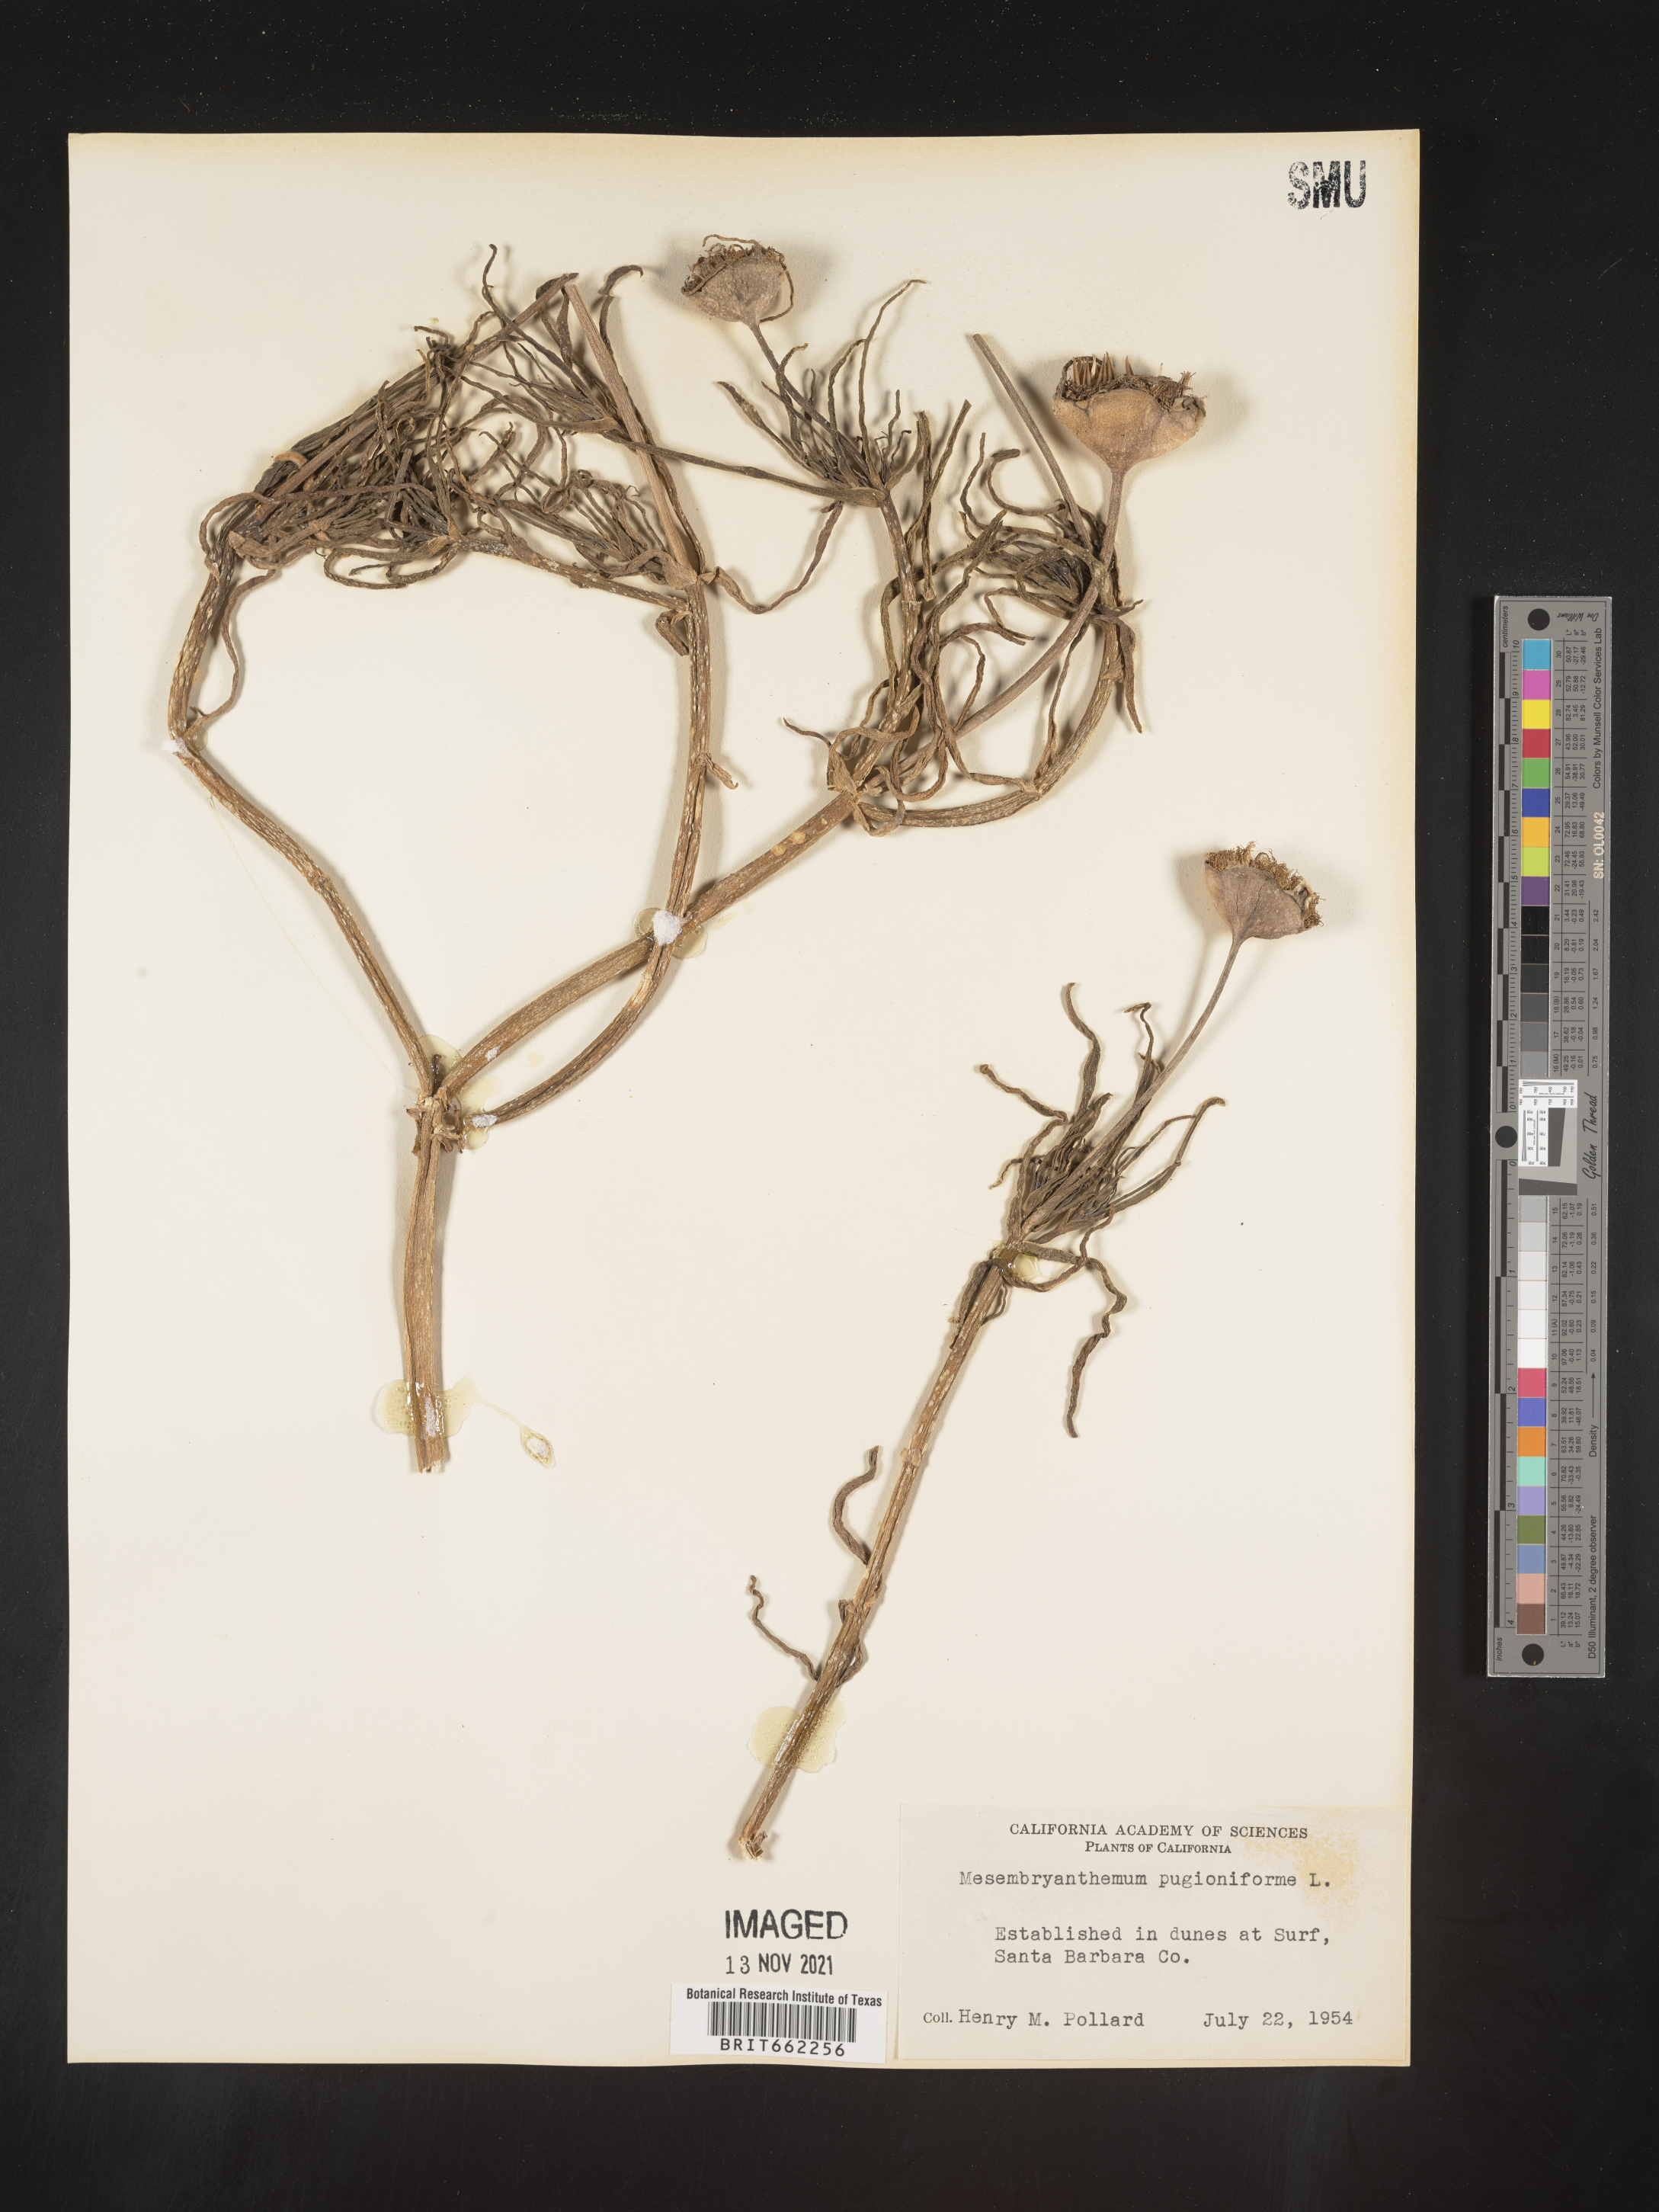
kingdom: Plantae
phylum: Tracheophyta
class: Magnoliopsida
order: Caryophyllales
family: Aizoaceae
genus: Mesembryanthemum
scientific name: Mesembryanthemum
